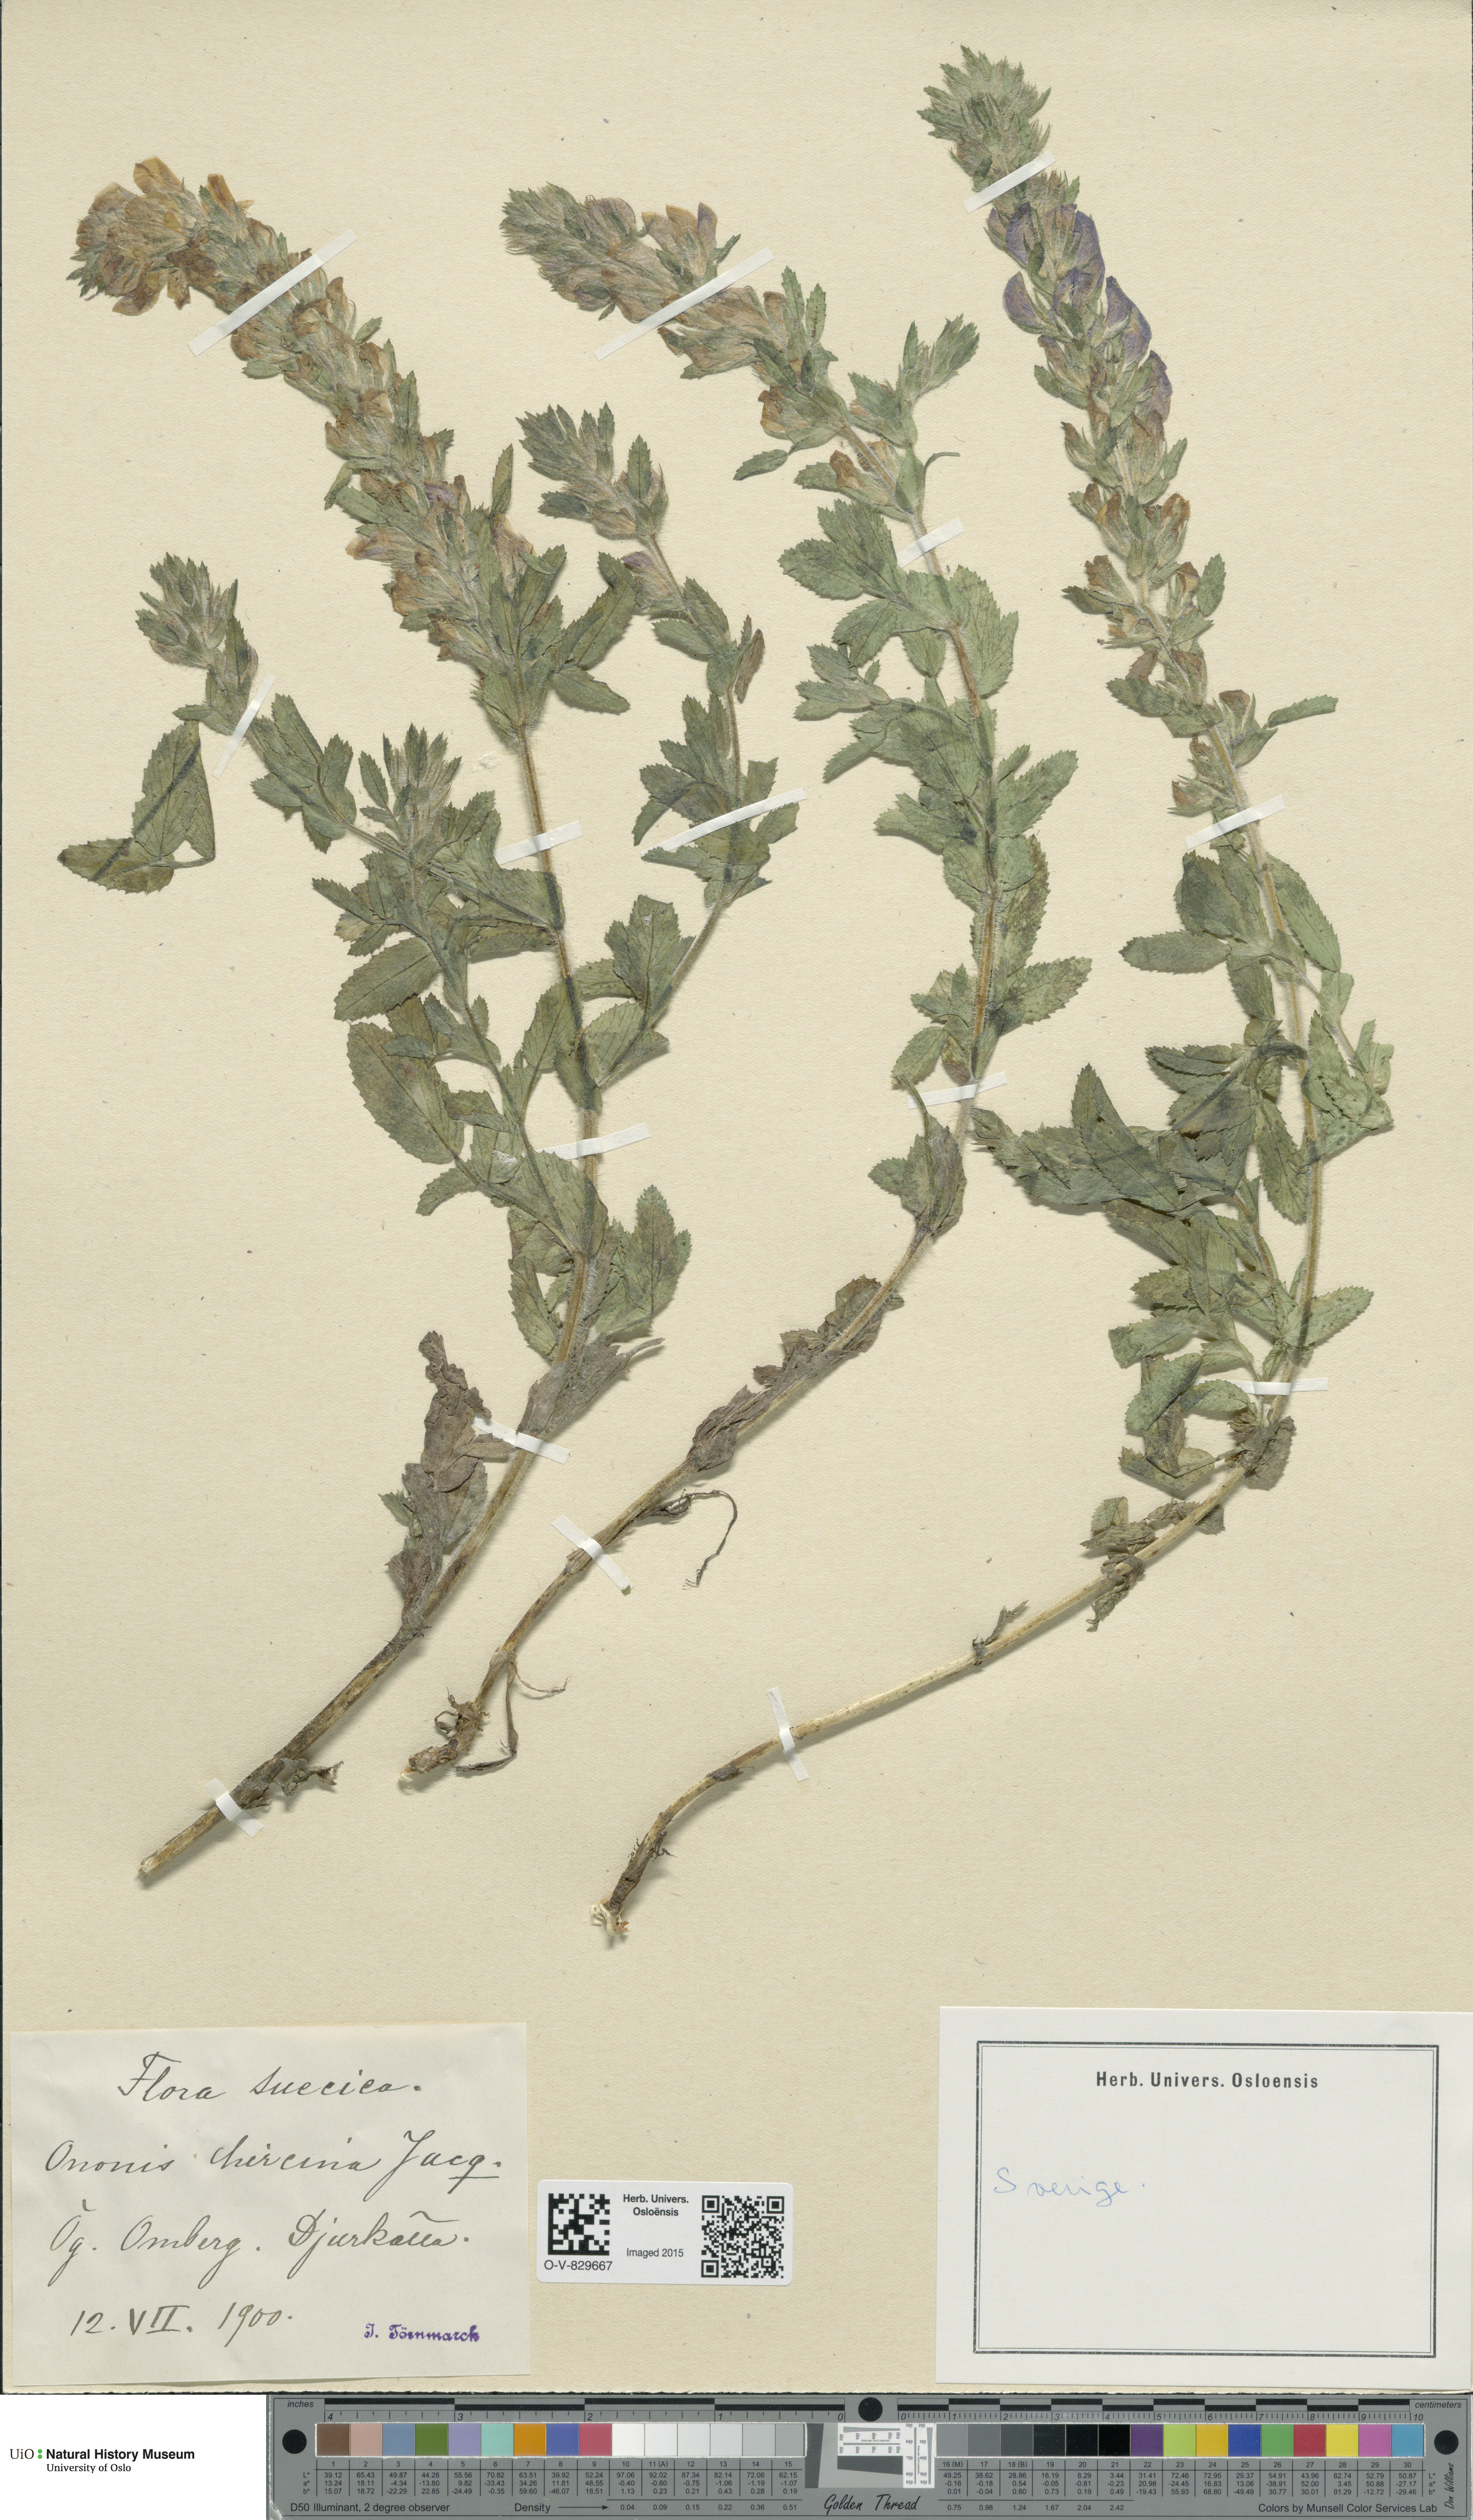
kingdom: Plantae
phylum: Tracheophyta
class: Magnoliopsida
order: Fabales
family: Fabaceae
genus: Ononis
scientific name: Ononis arvensis
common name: Field restharrow
